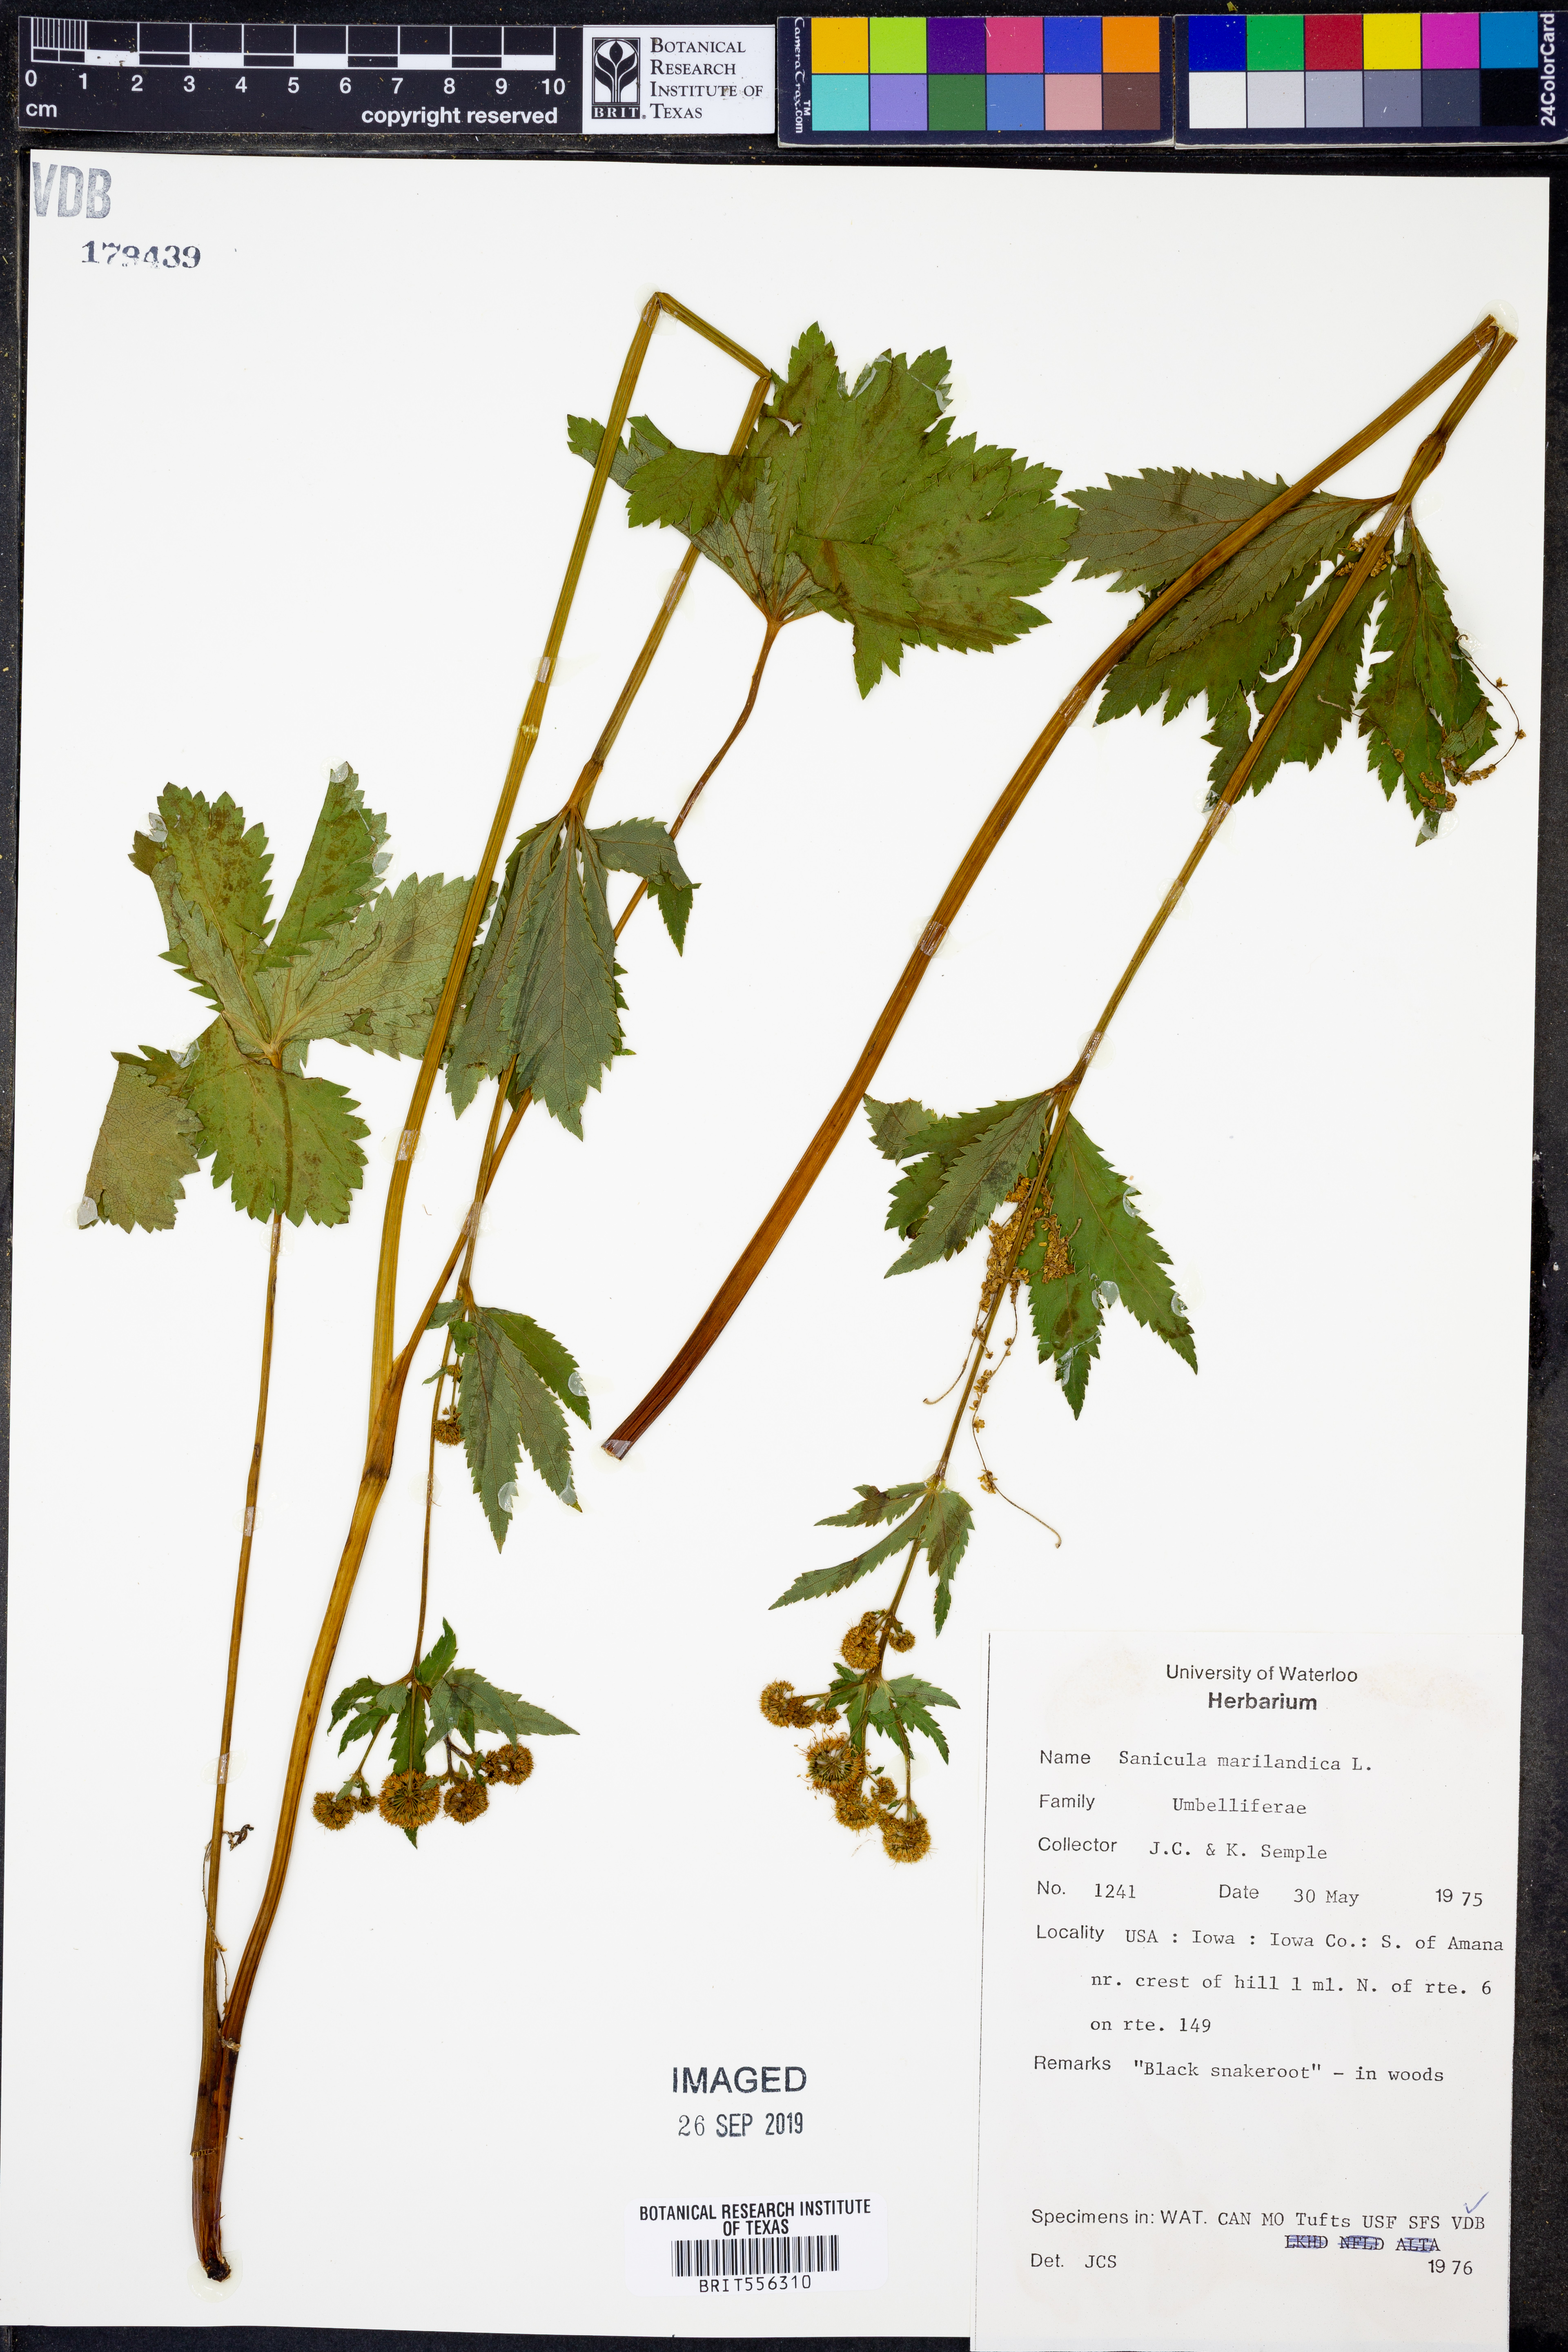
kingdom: Plantae
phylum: Tracheophyta
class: Magnoliopsida
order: Apiales
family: Apiaceae
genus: Sanicula
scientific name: Sanicula marilandica
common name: Black snakeroot
